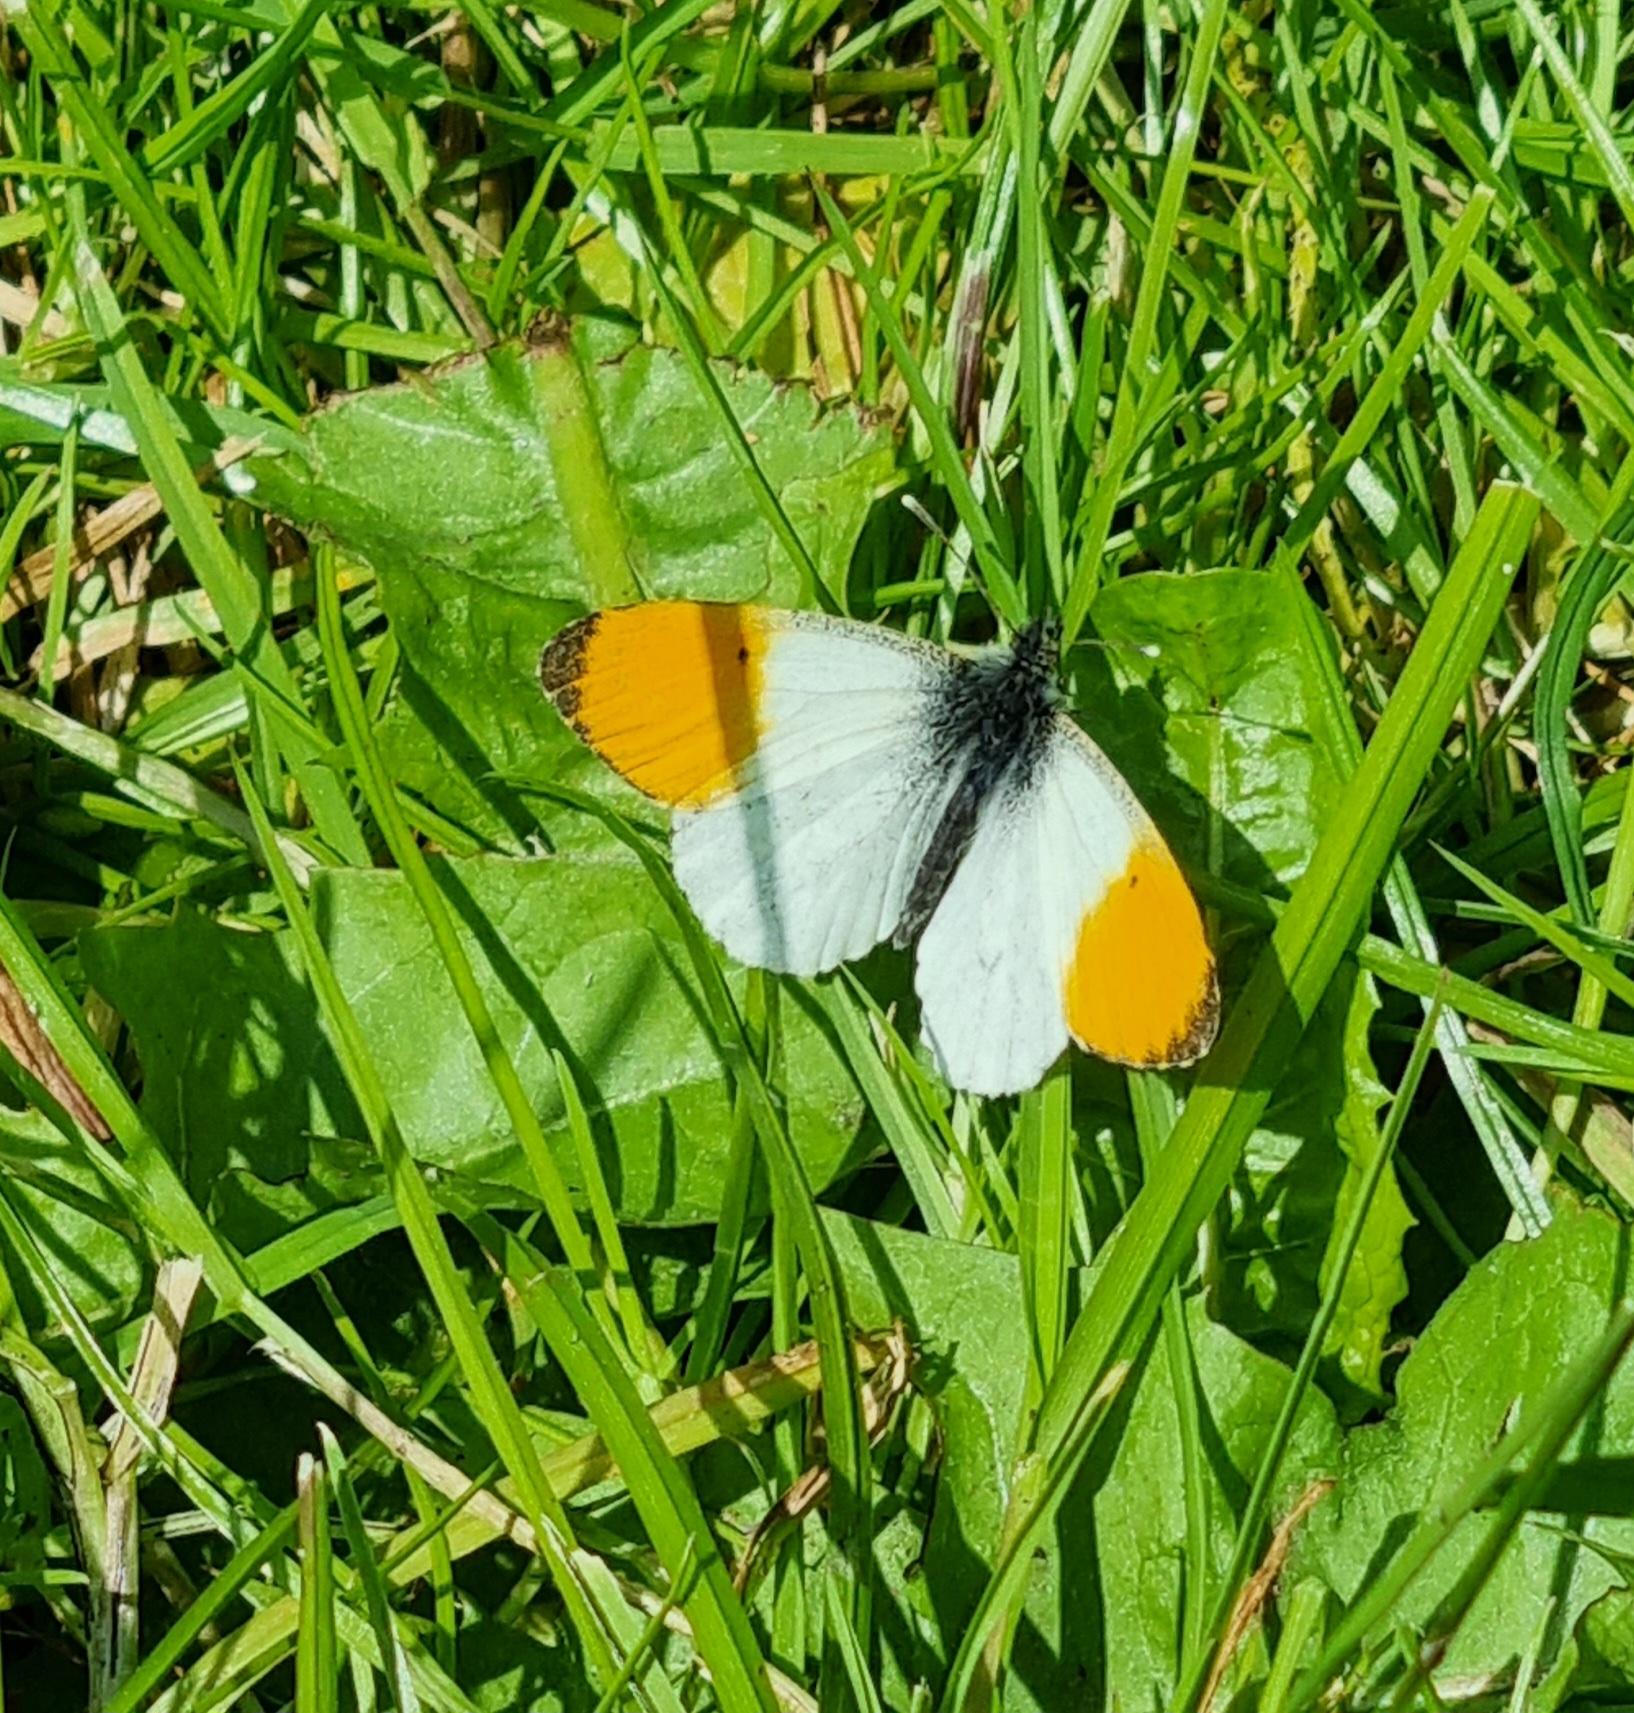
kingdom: Animalia
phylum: Arthropoda
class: Insecta
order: Lepidoptera
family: Pieridae
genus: Anthocharis
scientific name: Anthocharis cardamines
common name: Aurora
